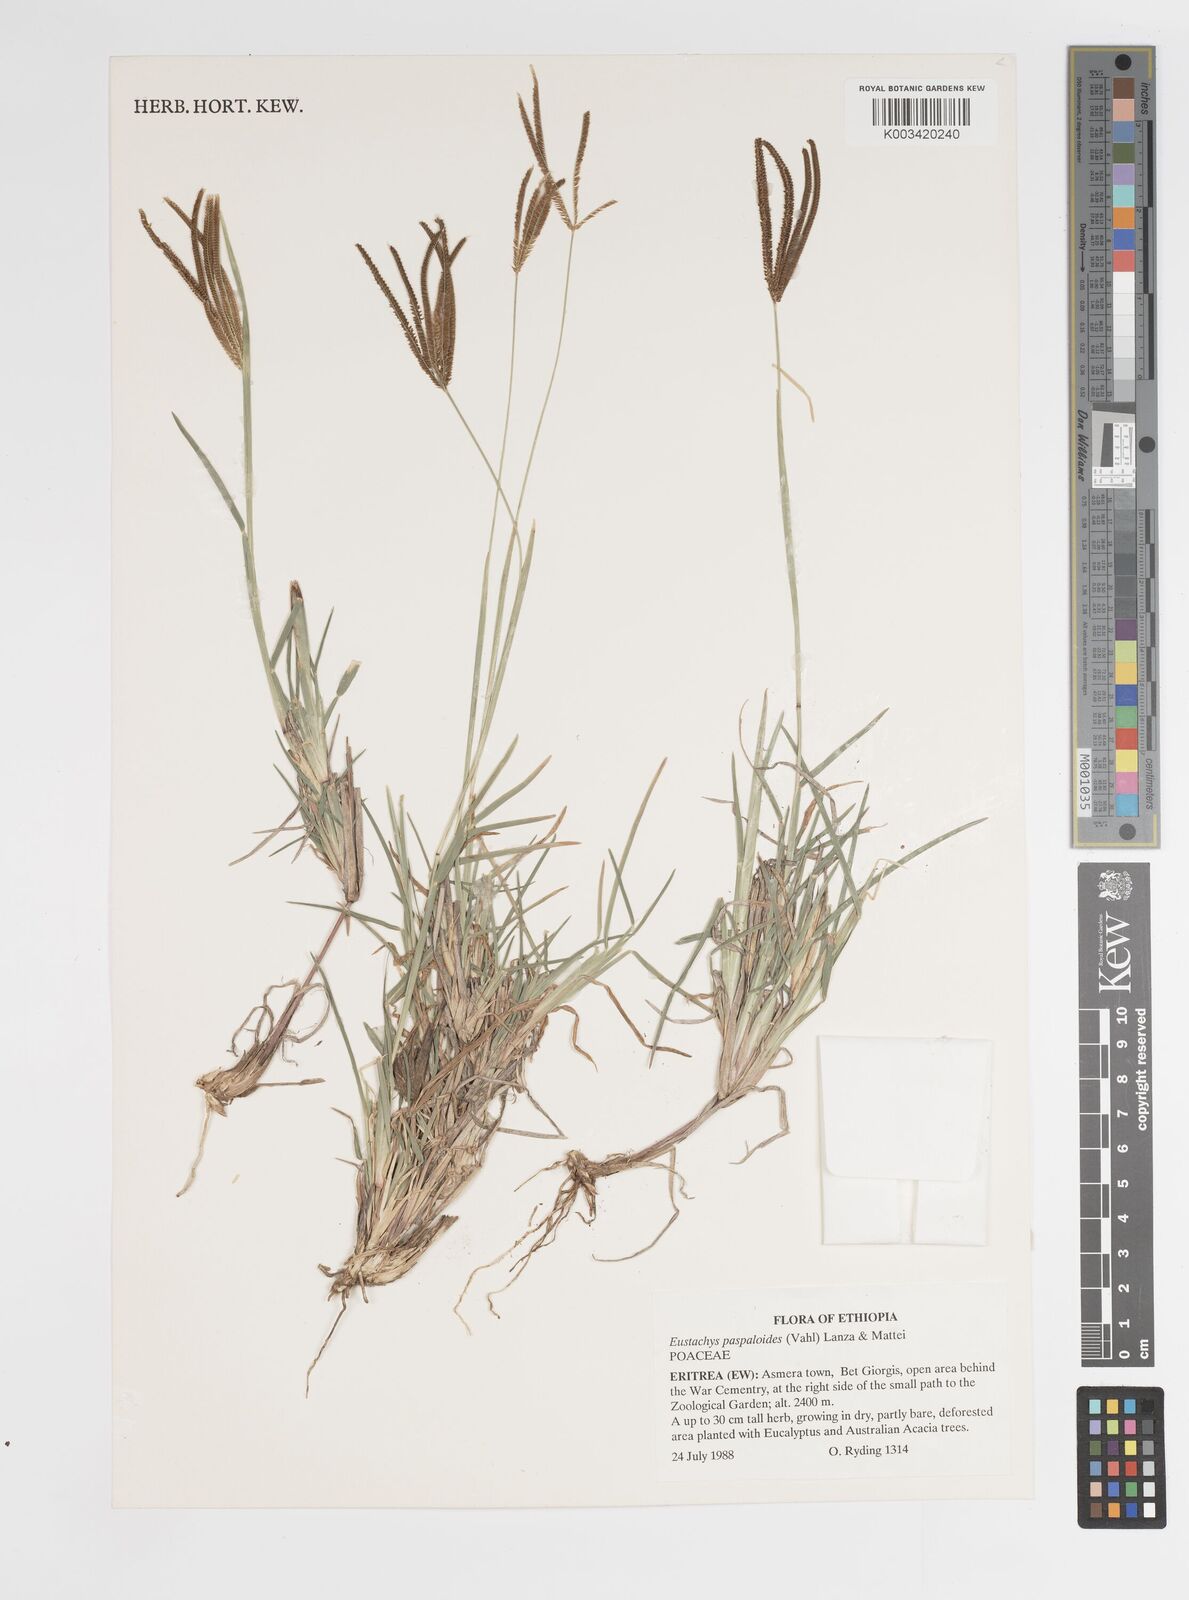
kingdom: Plantae
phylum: Tracheophyta
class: Liliopsida
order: Poales
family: Poaceae
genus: Eustachys
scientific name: Eustachys paspaloides
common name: Caribbean fingergrass
